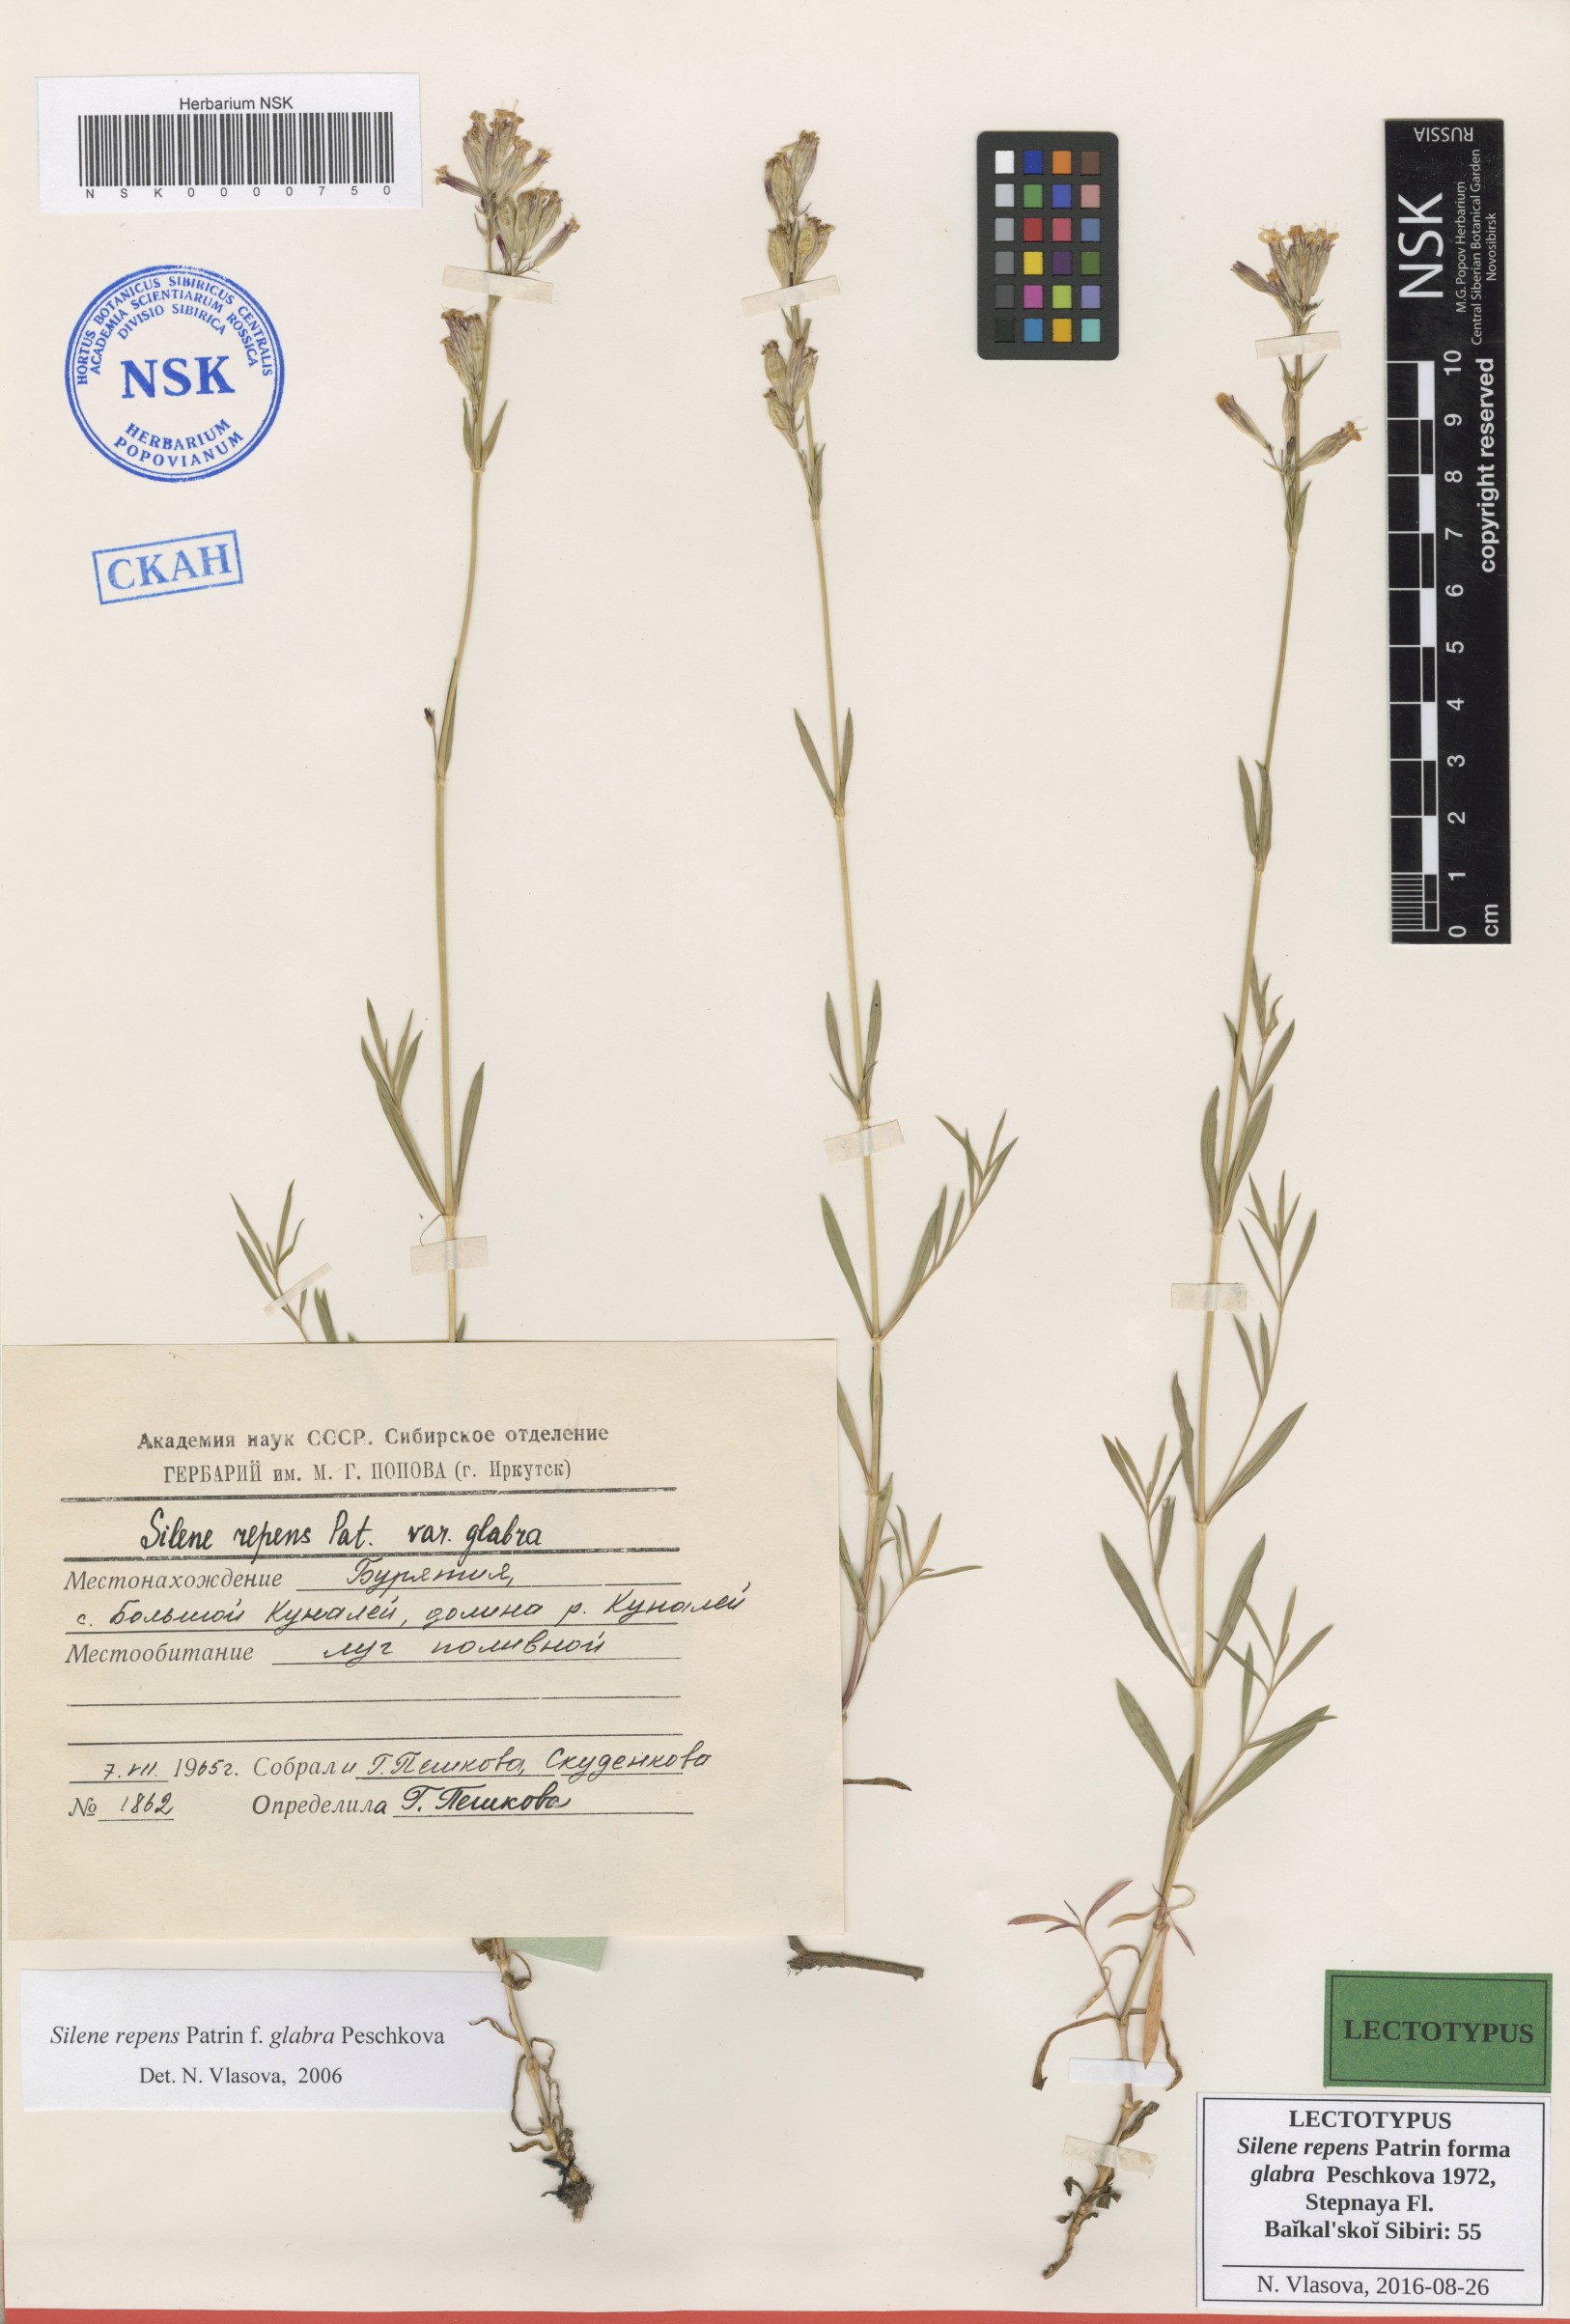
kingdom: Plantae
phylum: Tracheophyta
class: Magnoliopsida
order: Caryophyllales
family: Caryophyllaceae
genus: Silene
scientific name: Silene repens
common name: Pink campion
